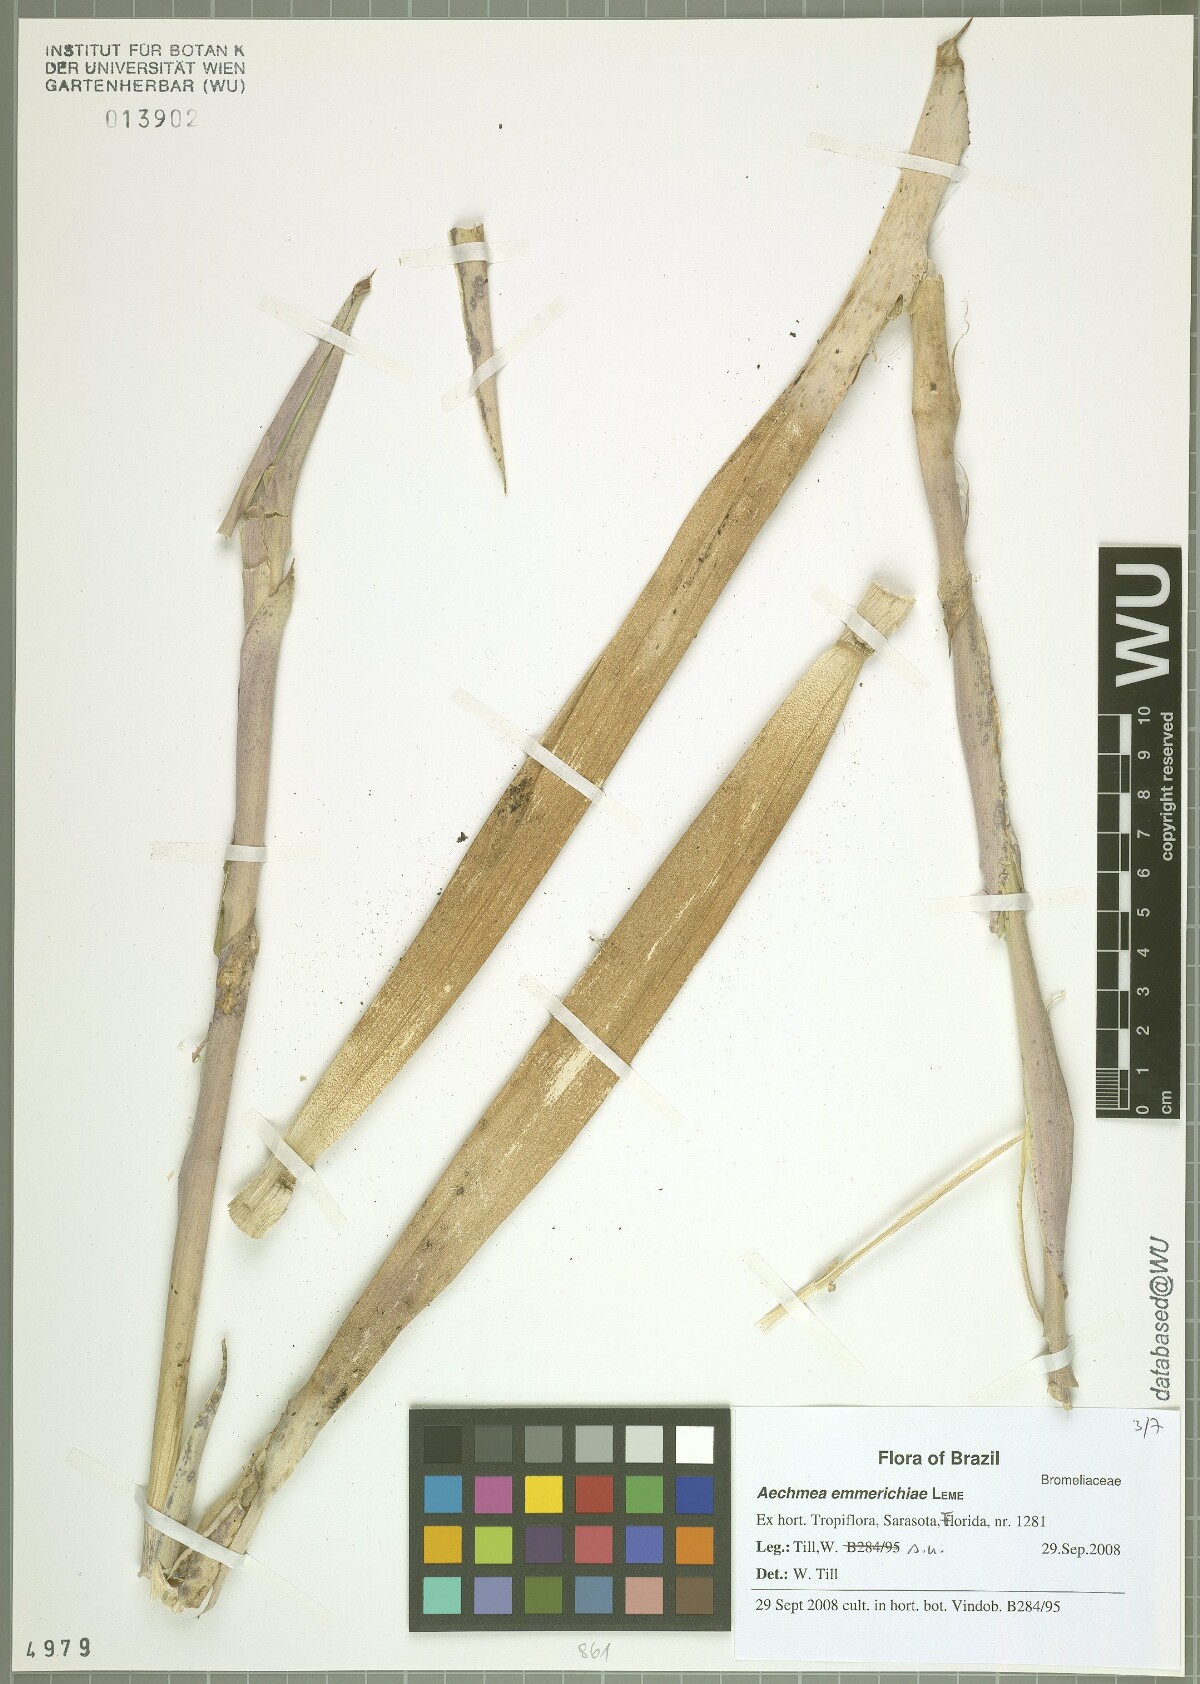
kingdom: Plantae
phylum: Tracheophyta
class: Liliopsida
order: Poales
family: Bromeliaceae
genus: Aechmea
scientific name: Aechmea emmerichiae
